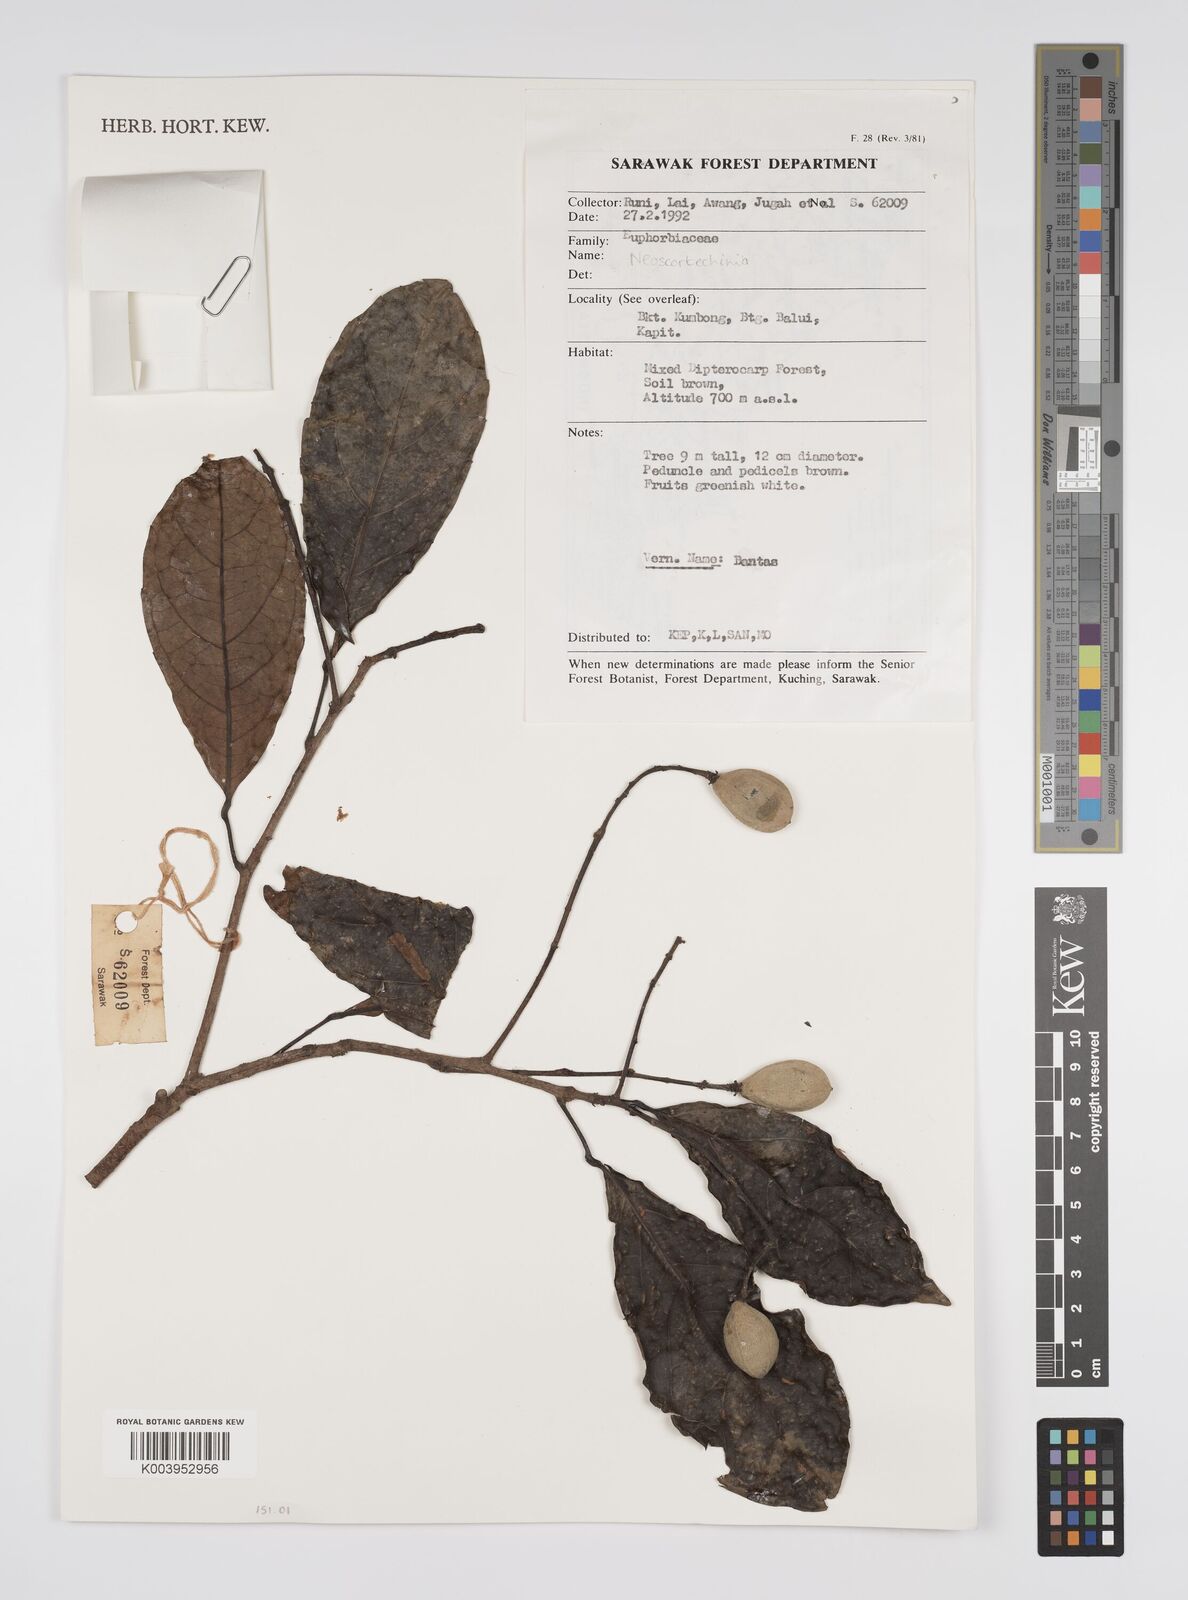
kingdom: Plantae
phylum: Tracheophyta
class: Magnoliopsida
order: Malpighiales
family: Euphorbiaceae
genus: Neoscortechinia
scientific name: Neoscortechinia
